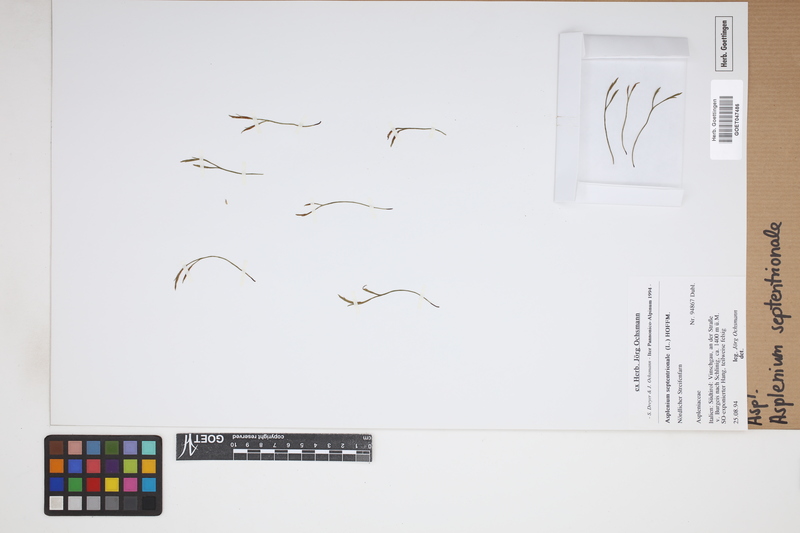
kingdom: Plantae
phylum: Tracheophyta
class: Polypodiopsida
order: Polypodiales
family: Aspleniaceae
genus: Asplenium
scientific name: Asplenium septentrionale
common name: Forked spleenwort
